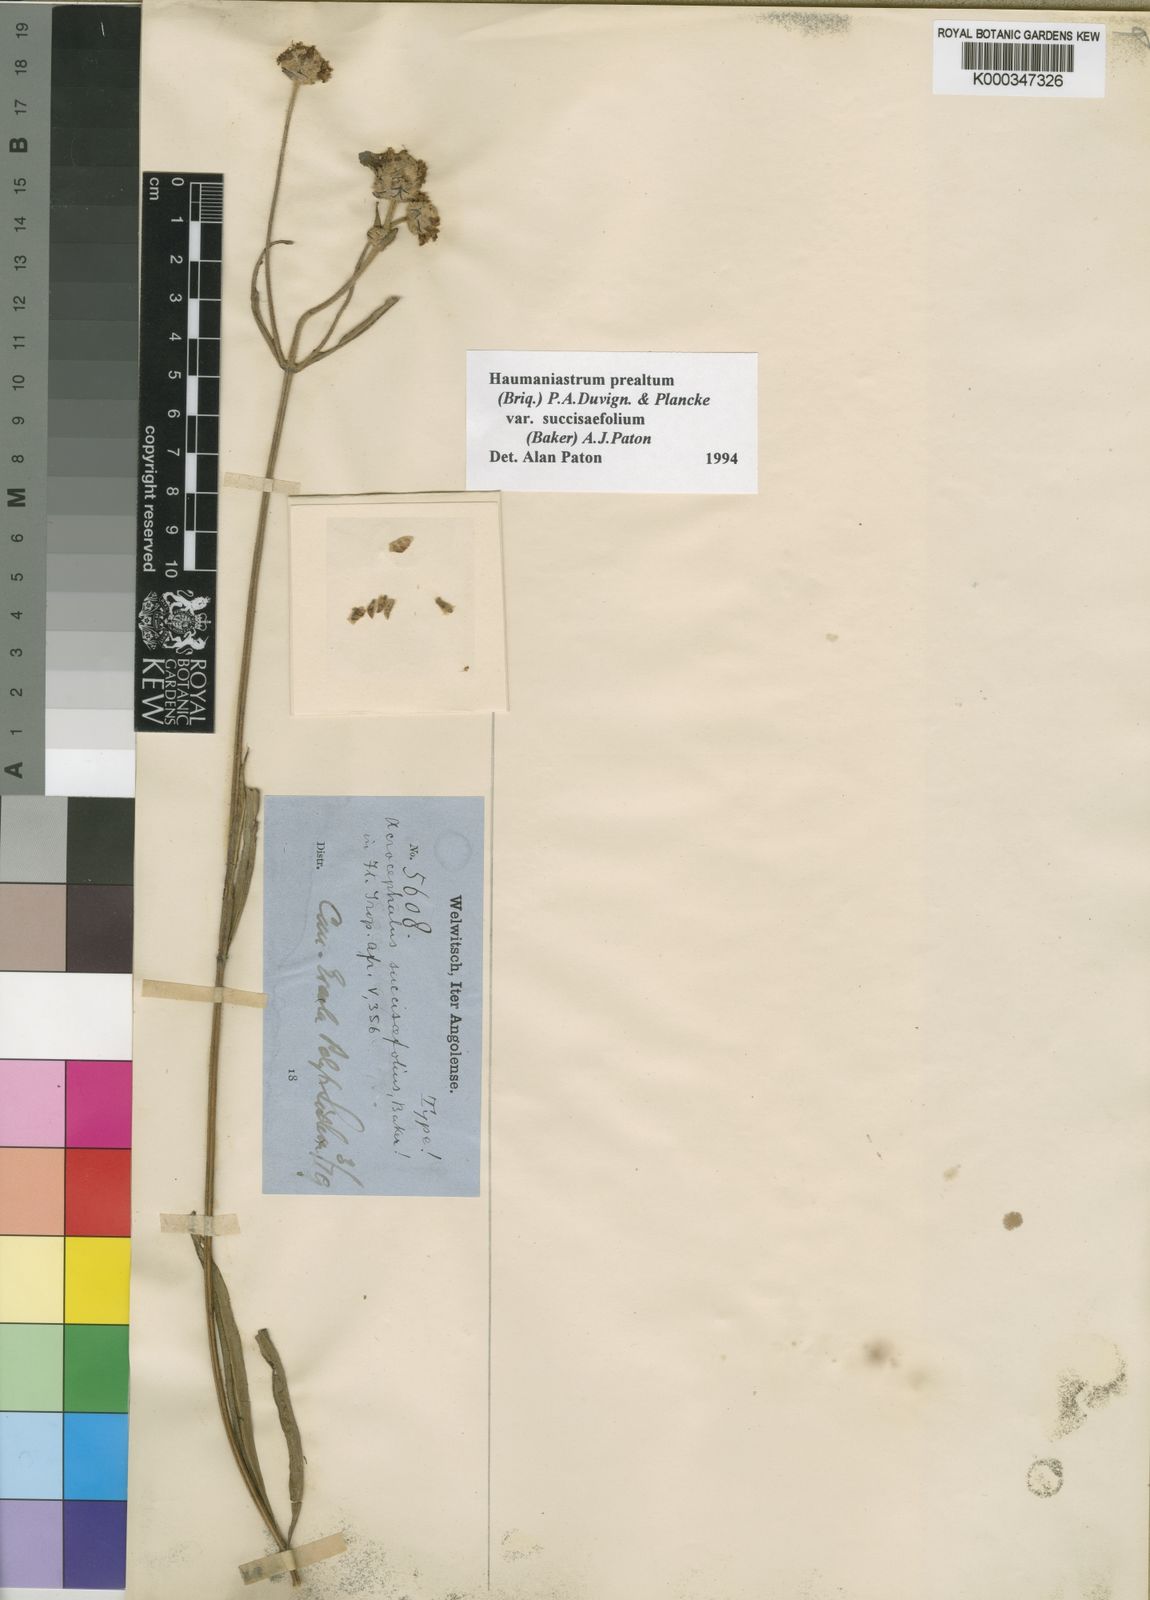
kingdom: Plantae
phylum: Tracheophyta
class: Magnoliopsida
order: Lamiales
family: Lamiaceae
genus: Haumaniastrum
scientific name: Haumaniastrum
